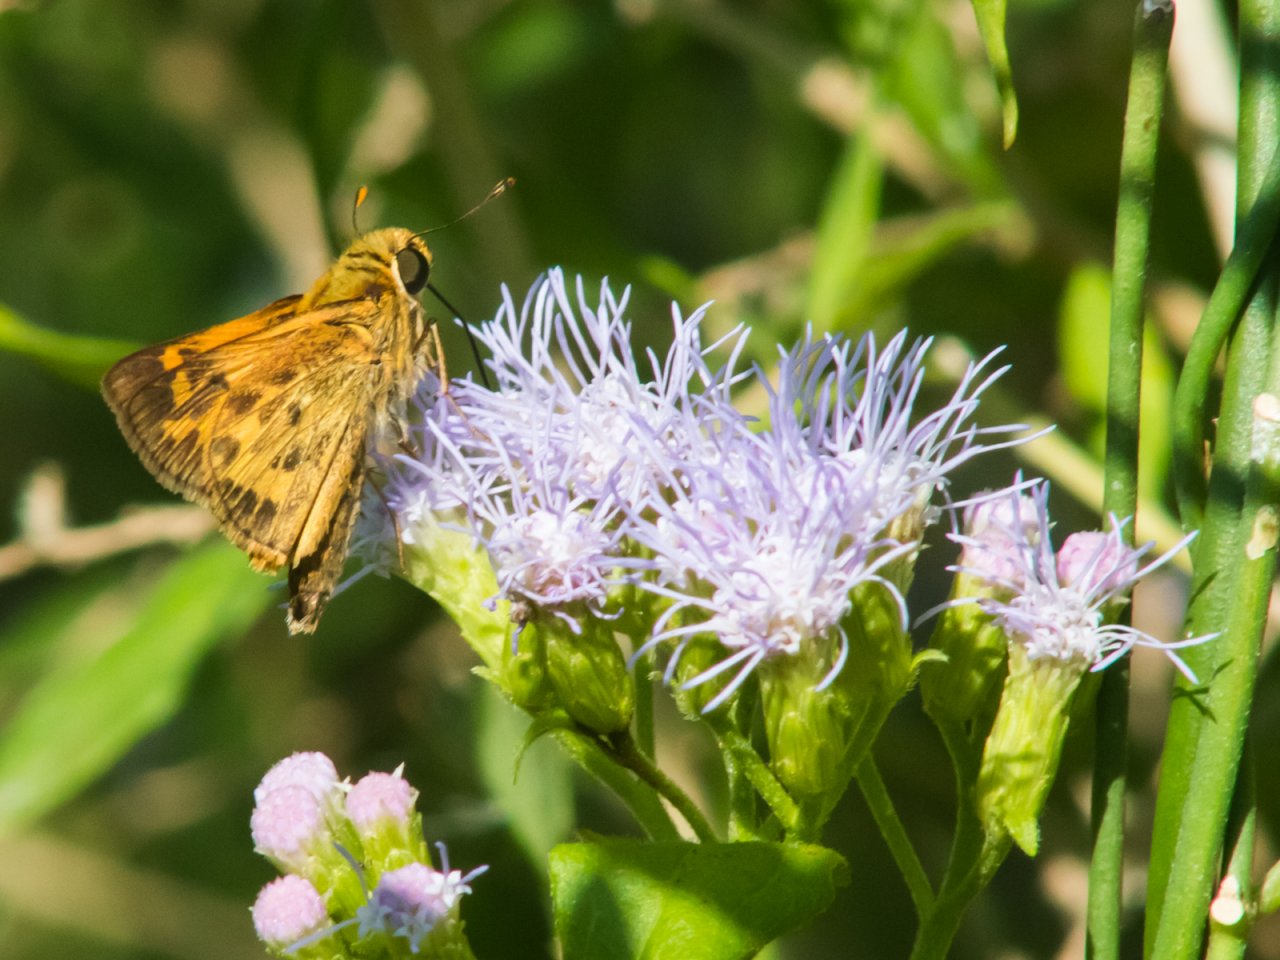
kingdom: Animalia
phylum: Arthropoda
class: Insecta
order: Lepidoptera
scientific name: Lepidoptera
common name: Butterflies
